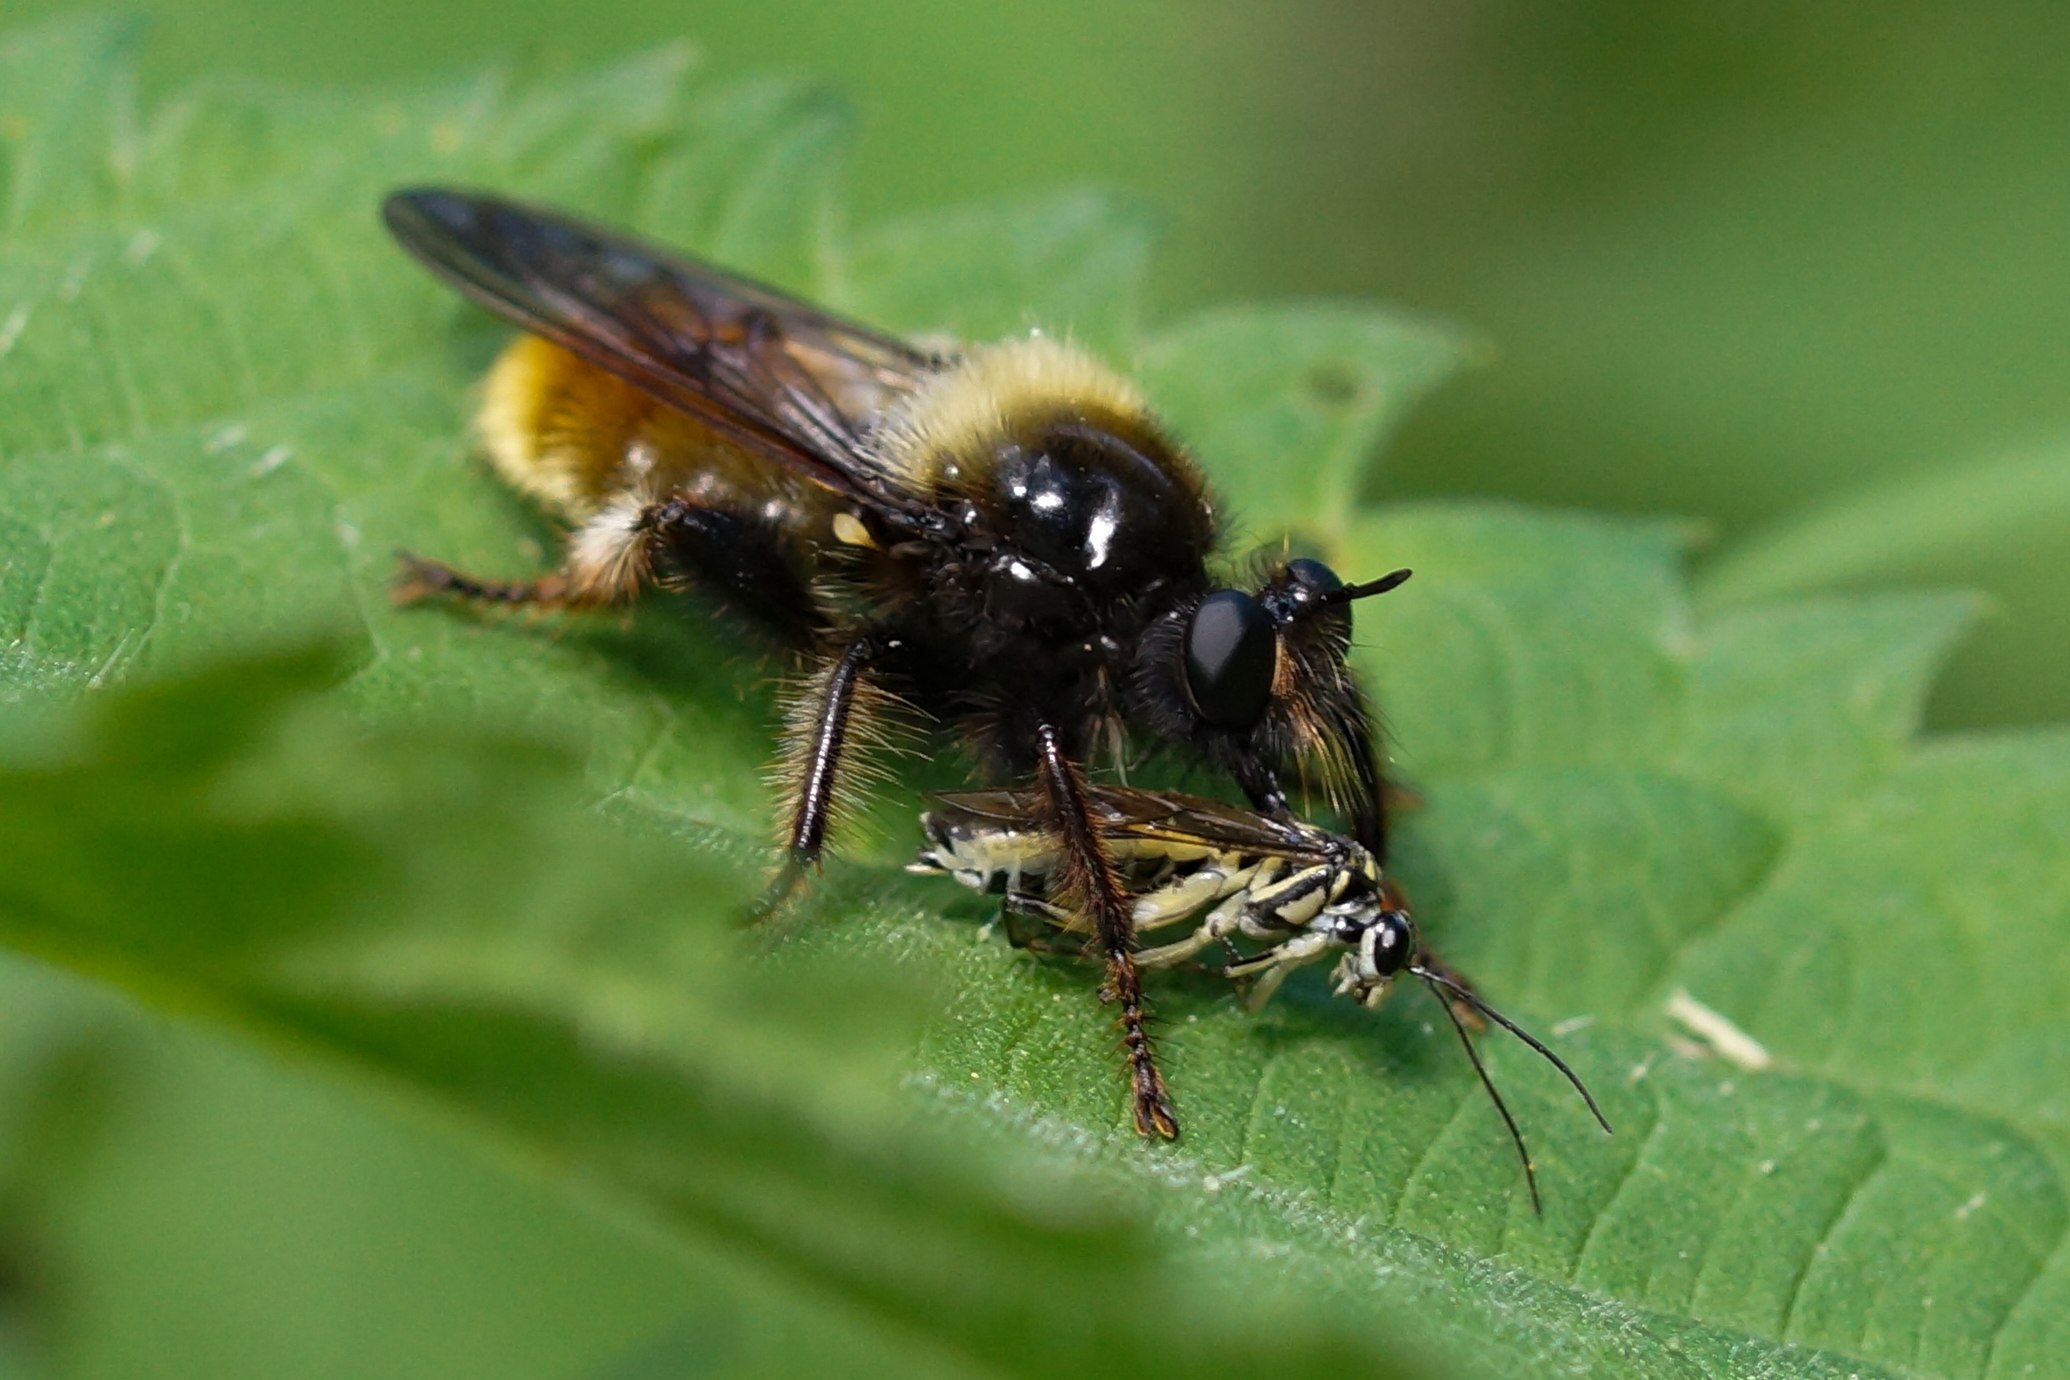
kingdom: Animalia
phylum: Arthropoda
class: Insecta
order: Diptera
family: Asilidae
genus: Laphria
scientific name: Laphria flava
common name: Gul vedrovflue
